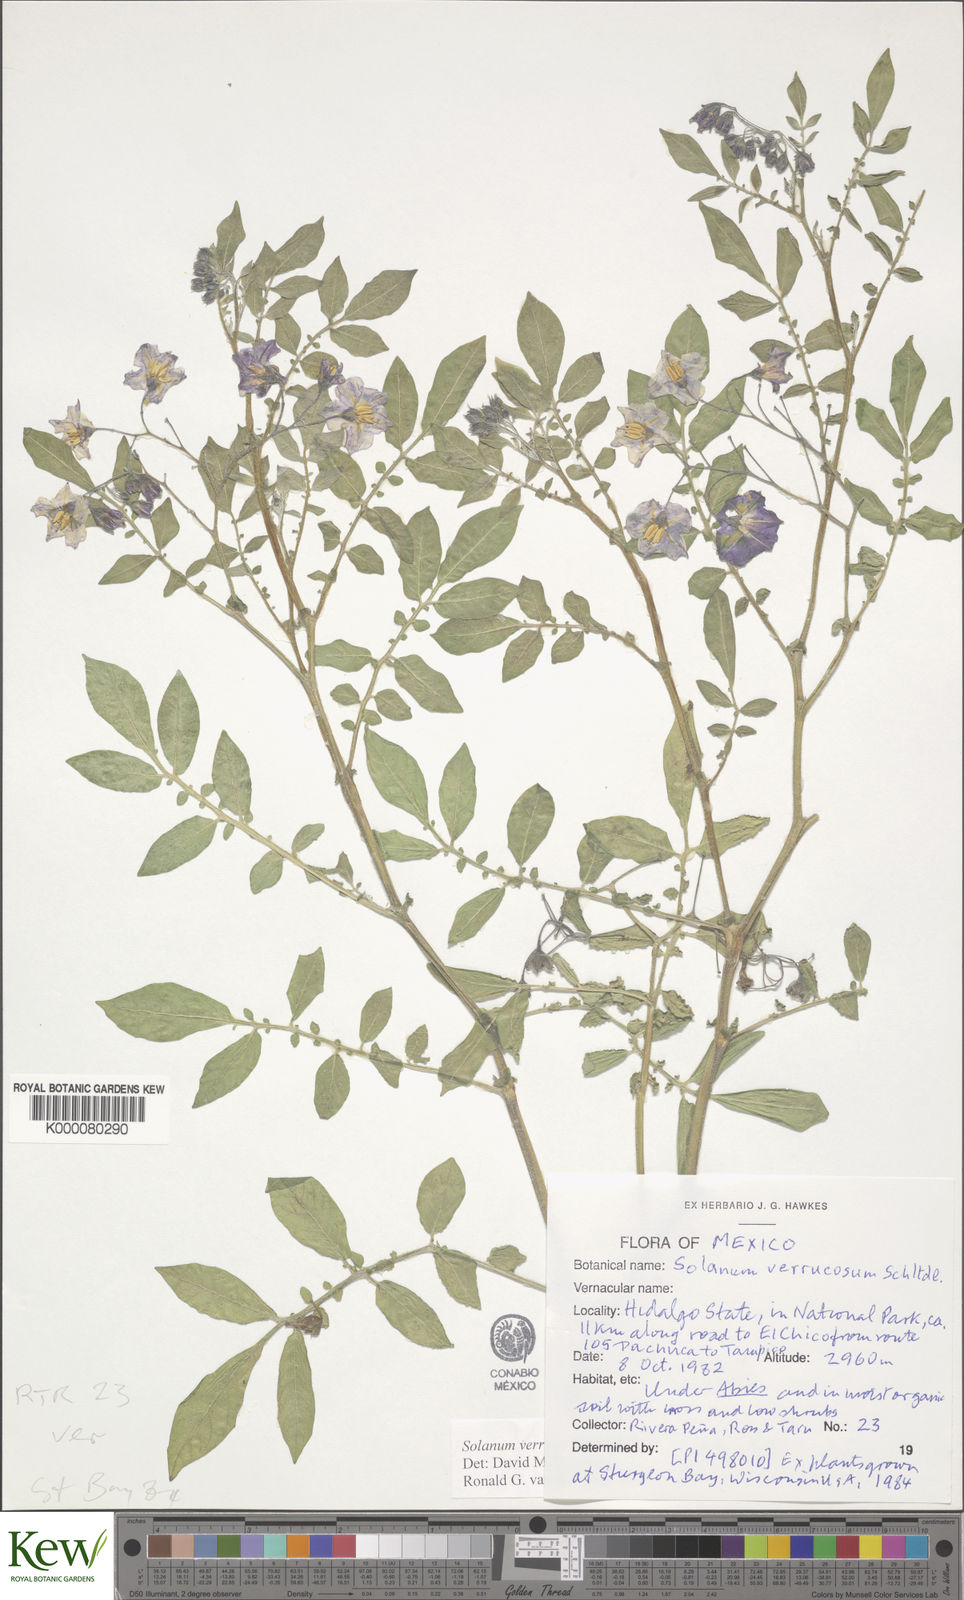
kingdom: Plantae
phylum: Tracheophyta
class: Magnoliopsida
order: Solanales
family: Solanaceae
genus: Solanum
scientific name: Solanum verrucosum
